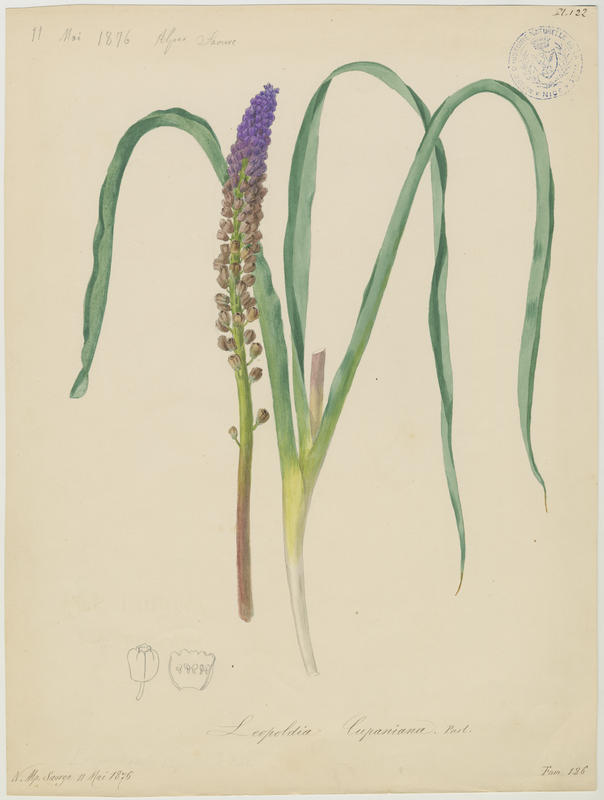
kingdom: Plantae
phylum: Tracheophyta
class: Liliopsida
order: Asparagales
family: Asparagaceae
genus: Muscari
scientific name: Muscari comosum
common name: Tassel hyacinth
